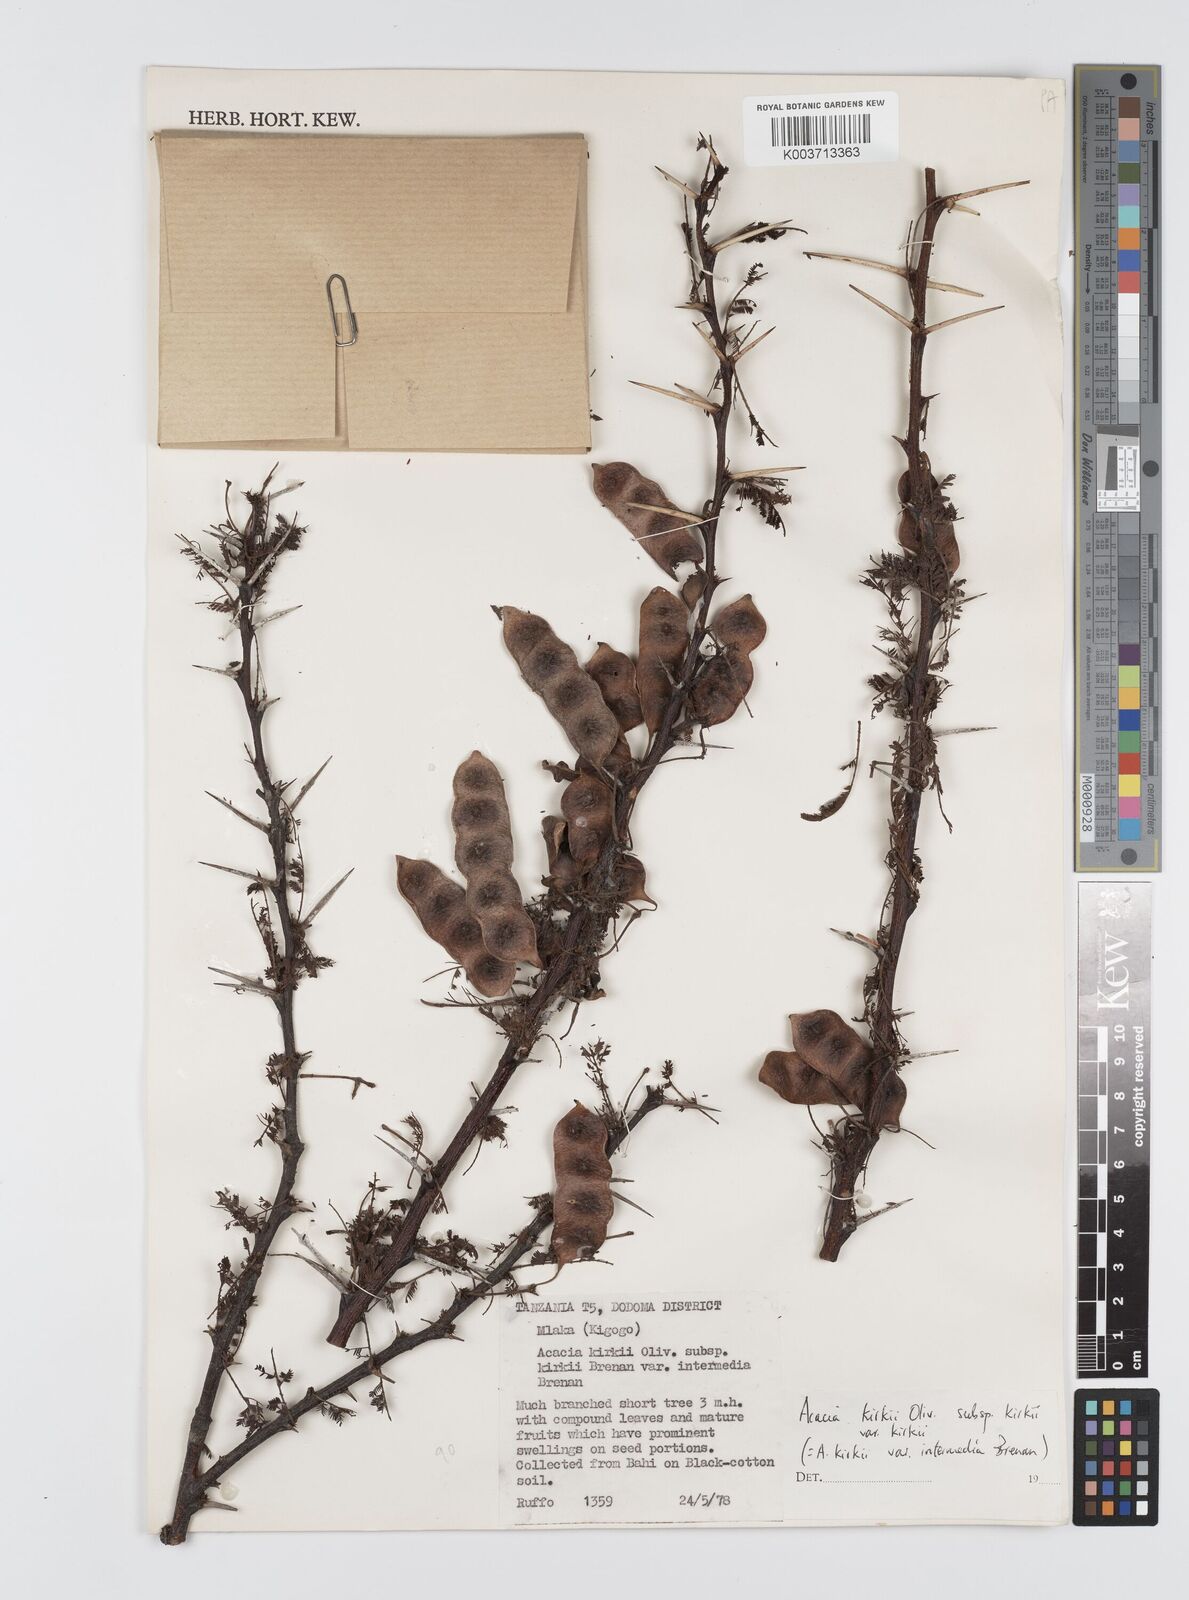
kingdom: Plantae
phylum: Tracheophyta
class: Magnoliopsida
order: Fabales
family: Fabaceae
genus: Vachellia
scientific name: Vachellia kirkii
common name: Flood-plain acacia
